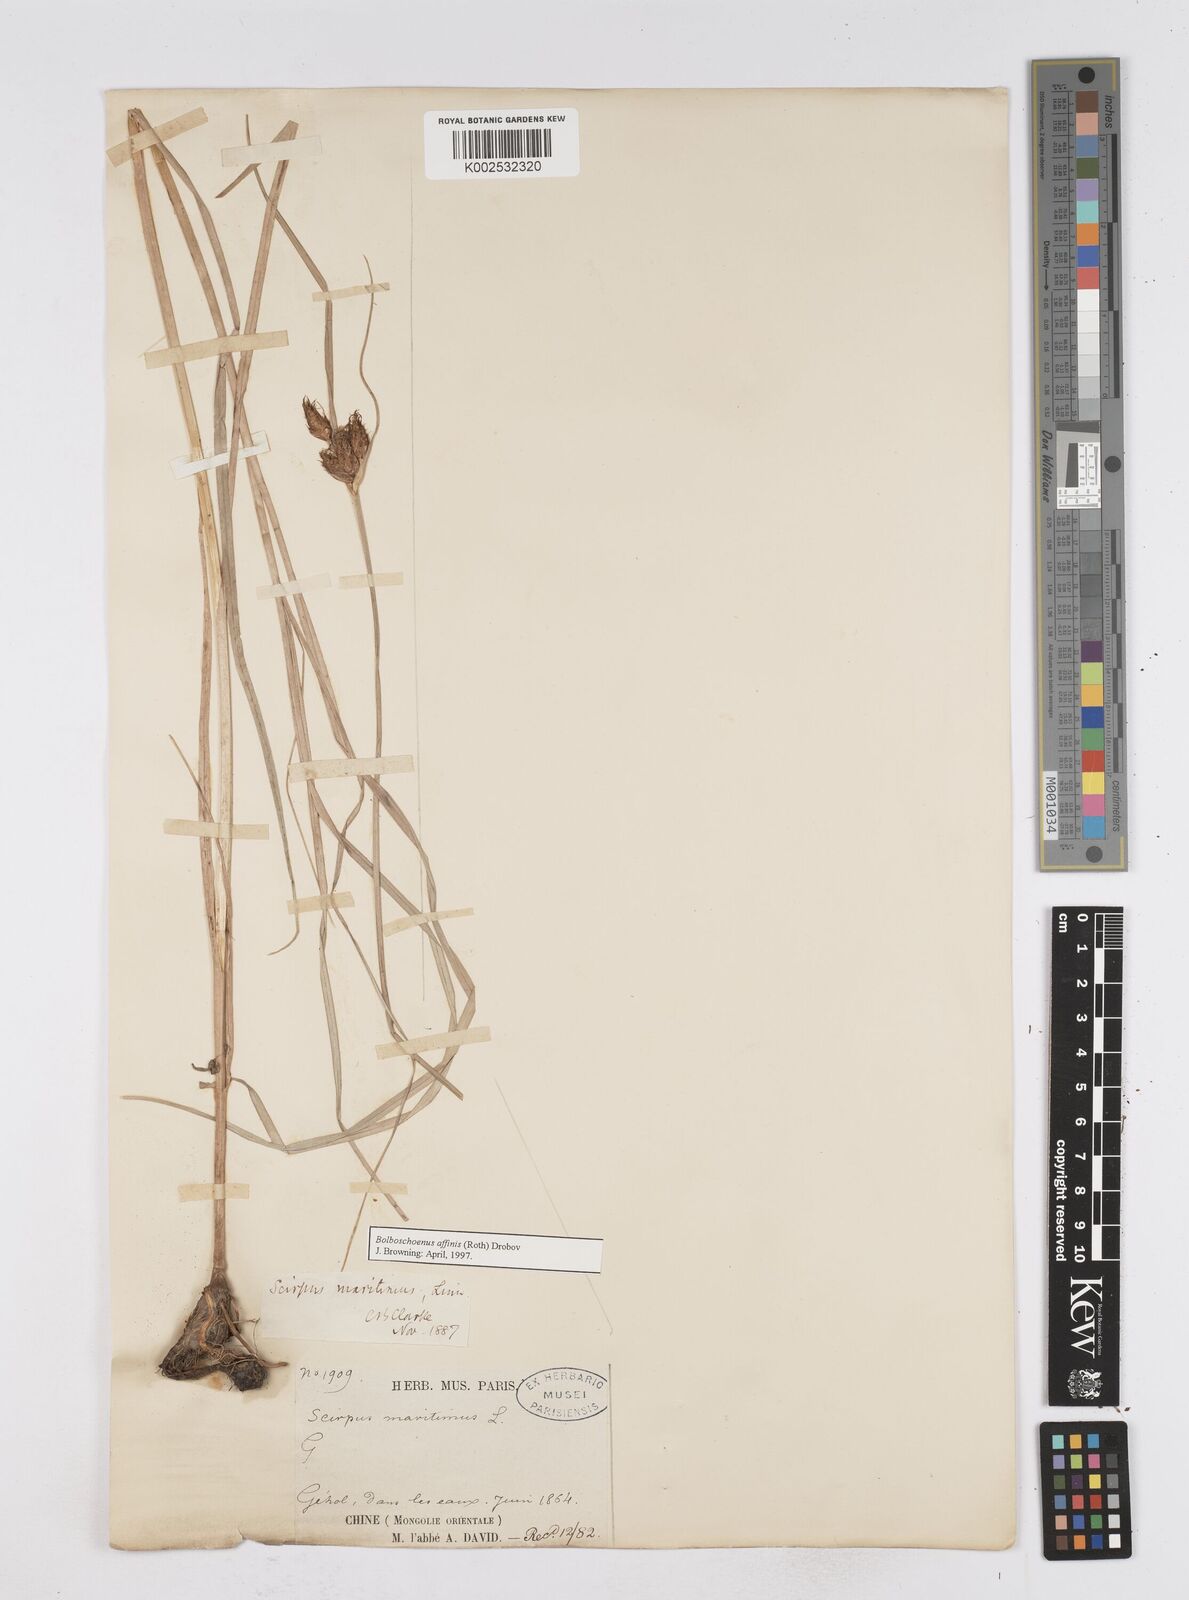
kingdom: Plantae
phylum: Tracheophyta
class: Liliopsida
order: Poales
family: Cyperaceae
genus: Bolboschoenus
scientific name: Bolboschoenus maritimus
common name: Sea club-rush
